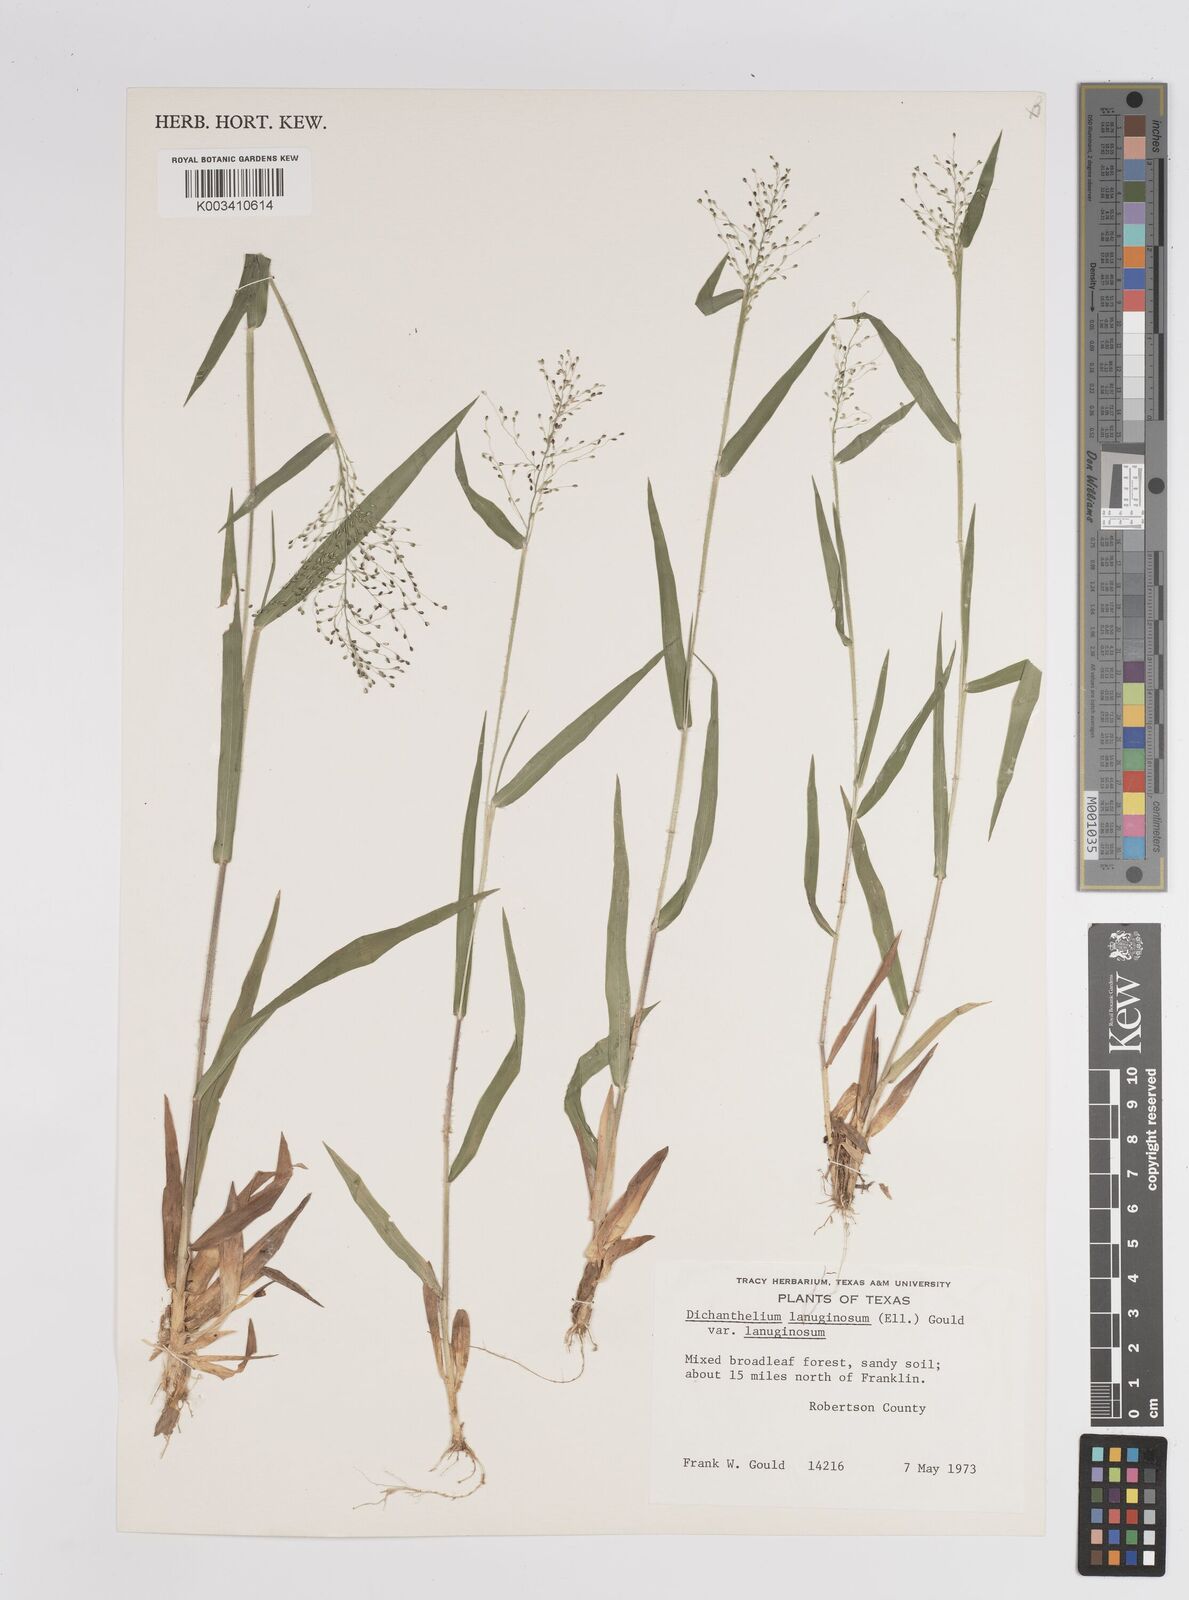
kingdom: Plantae
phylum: Tracheophyta
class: Liliopsida
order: Poales
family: Poaceae
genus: Dichanthelium
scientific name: Dichanthelium lanuginosum
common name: Woolly panicgrass
